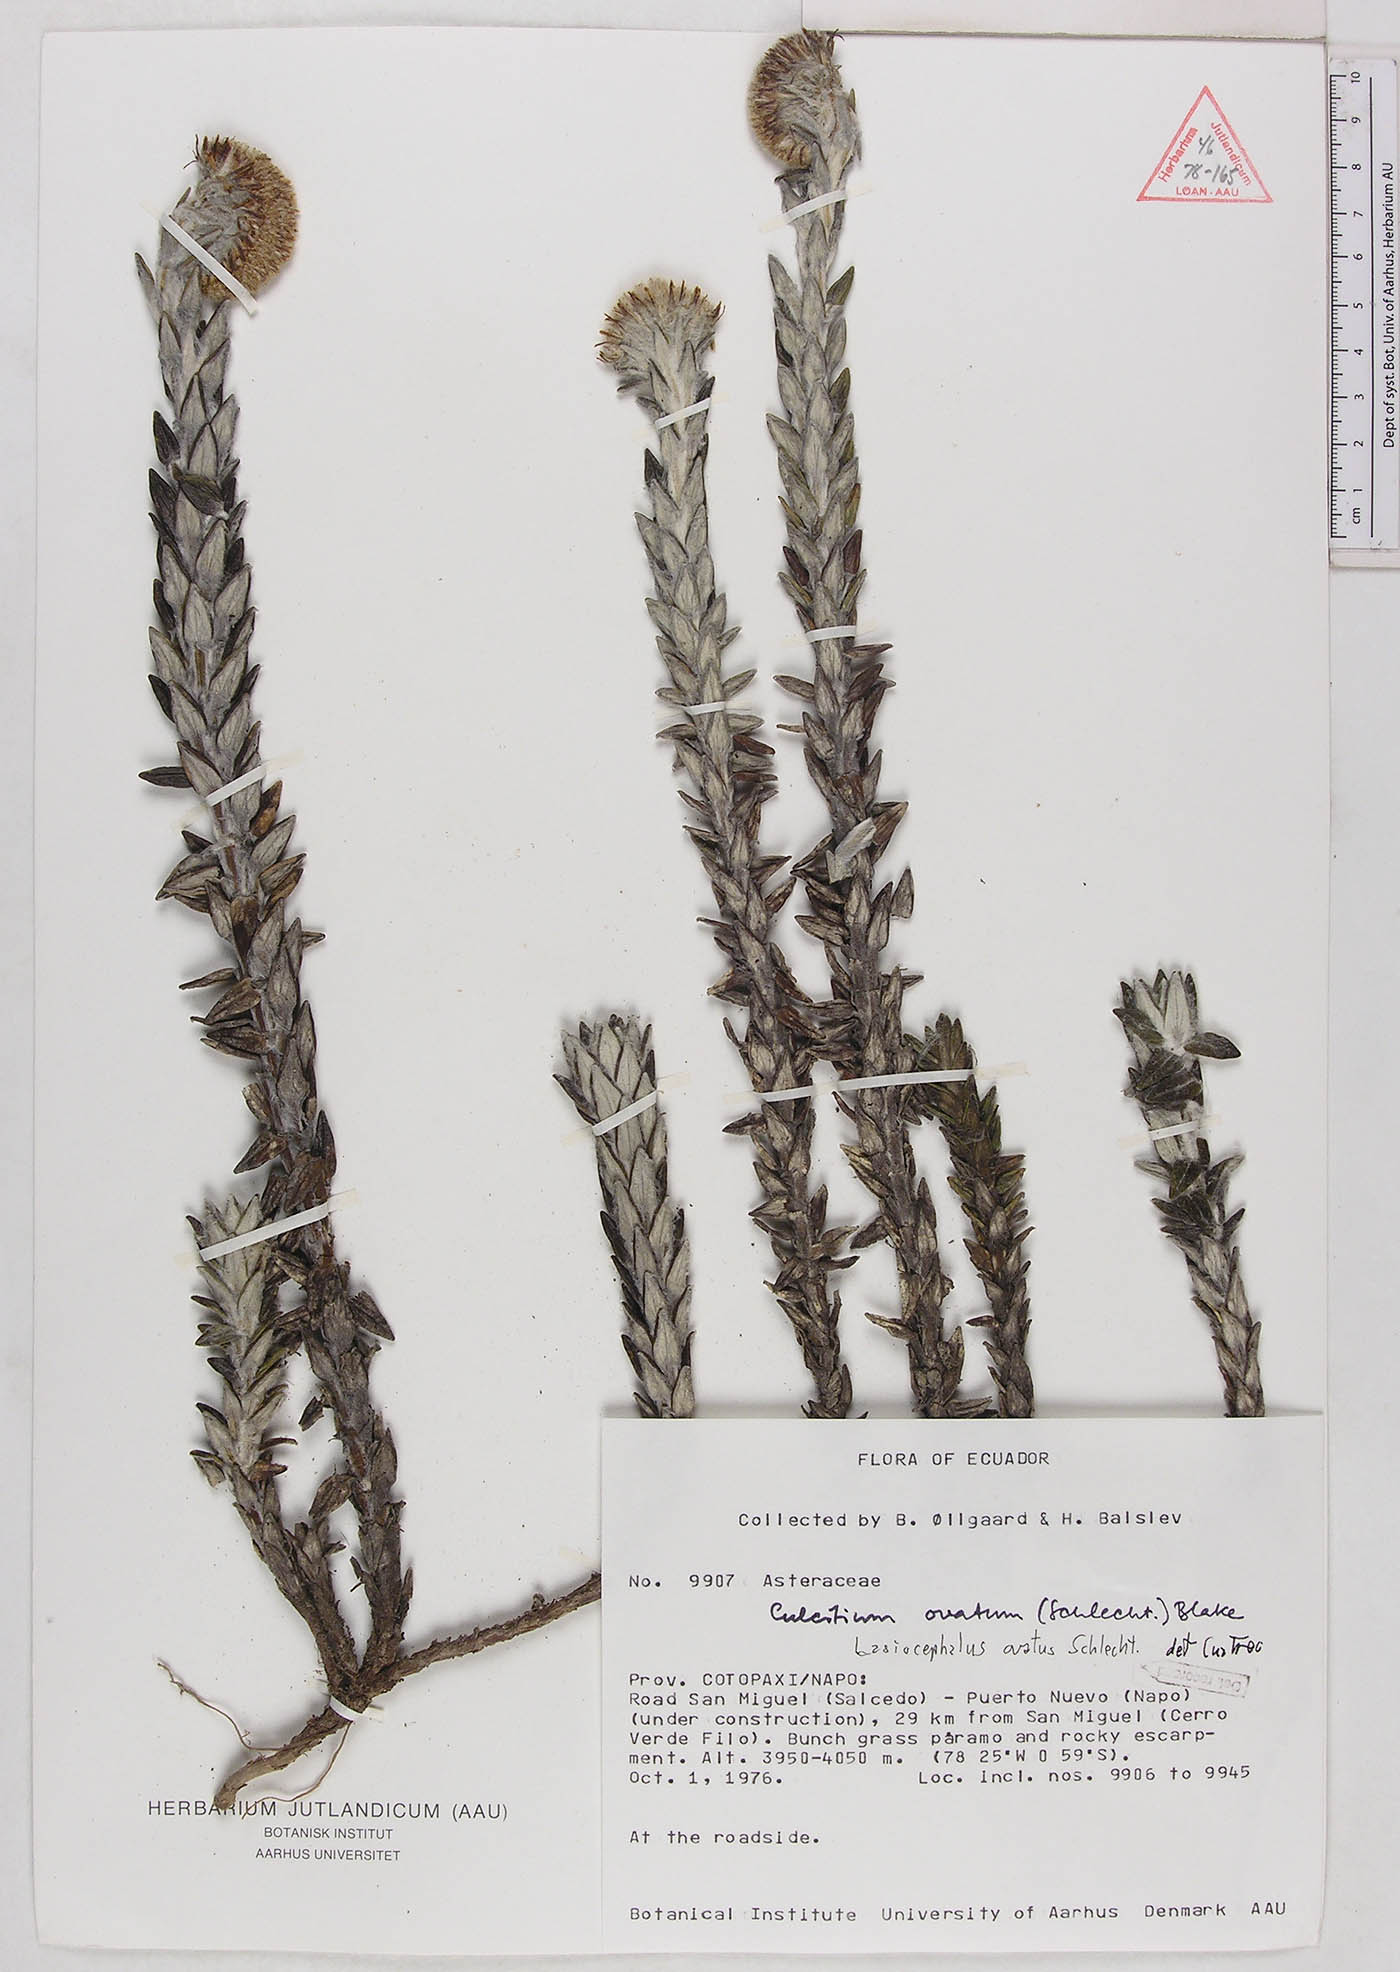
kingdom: Plantae
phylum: Tracheophyta
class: Magnoliopsida
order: Asterales
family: Asteraceae
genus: Lasiocephalus
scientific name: Lasiocephalus ovatus
